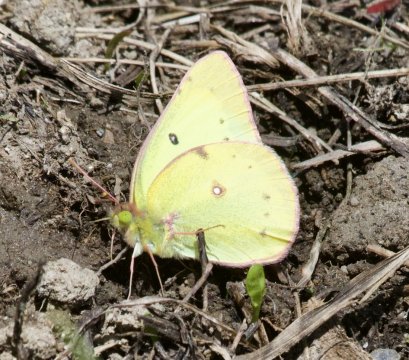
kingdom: Animalia
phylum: Arthropoda
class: Insecta
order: Lepidoptera
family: Pieridae
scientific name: Pieridae
